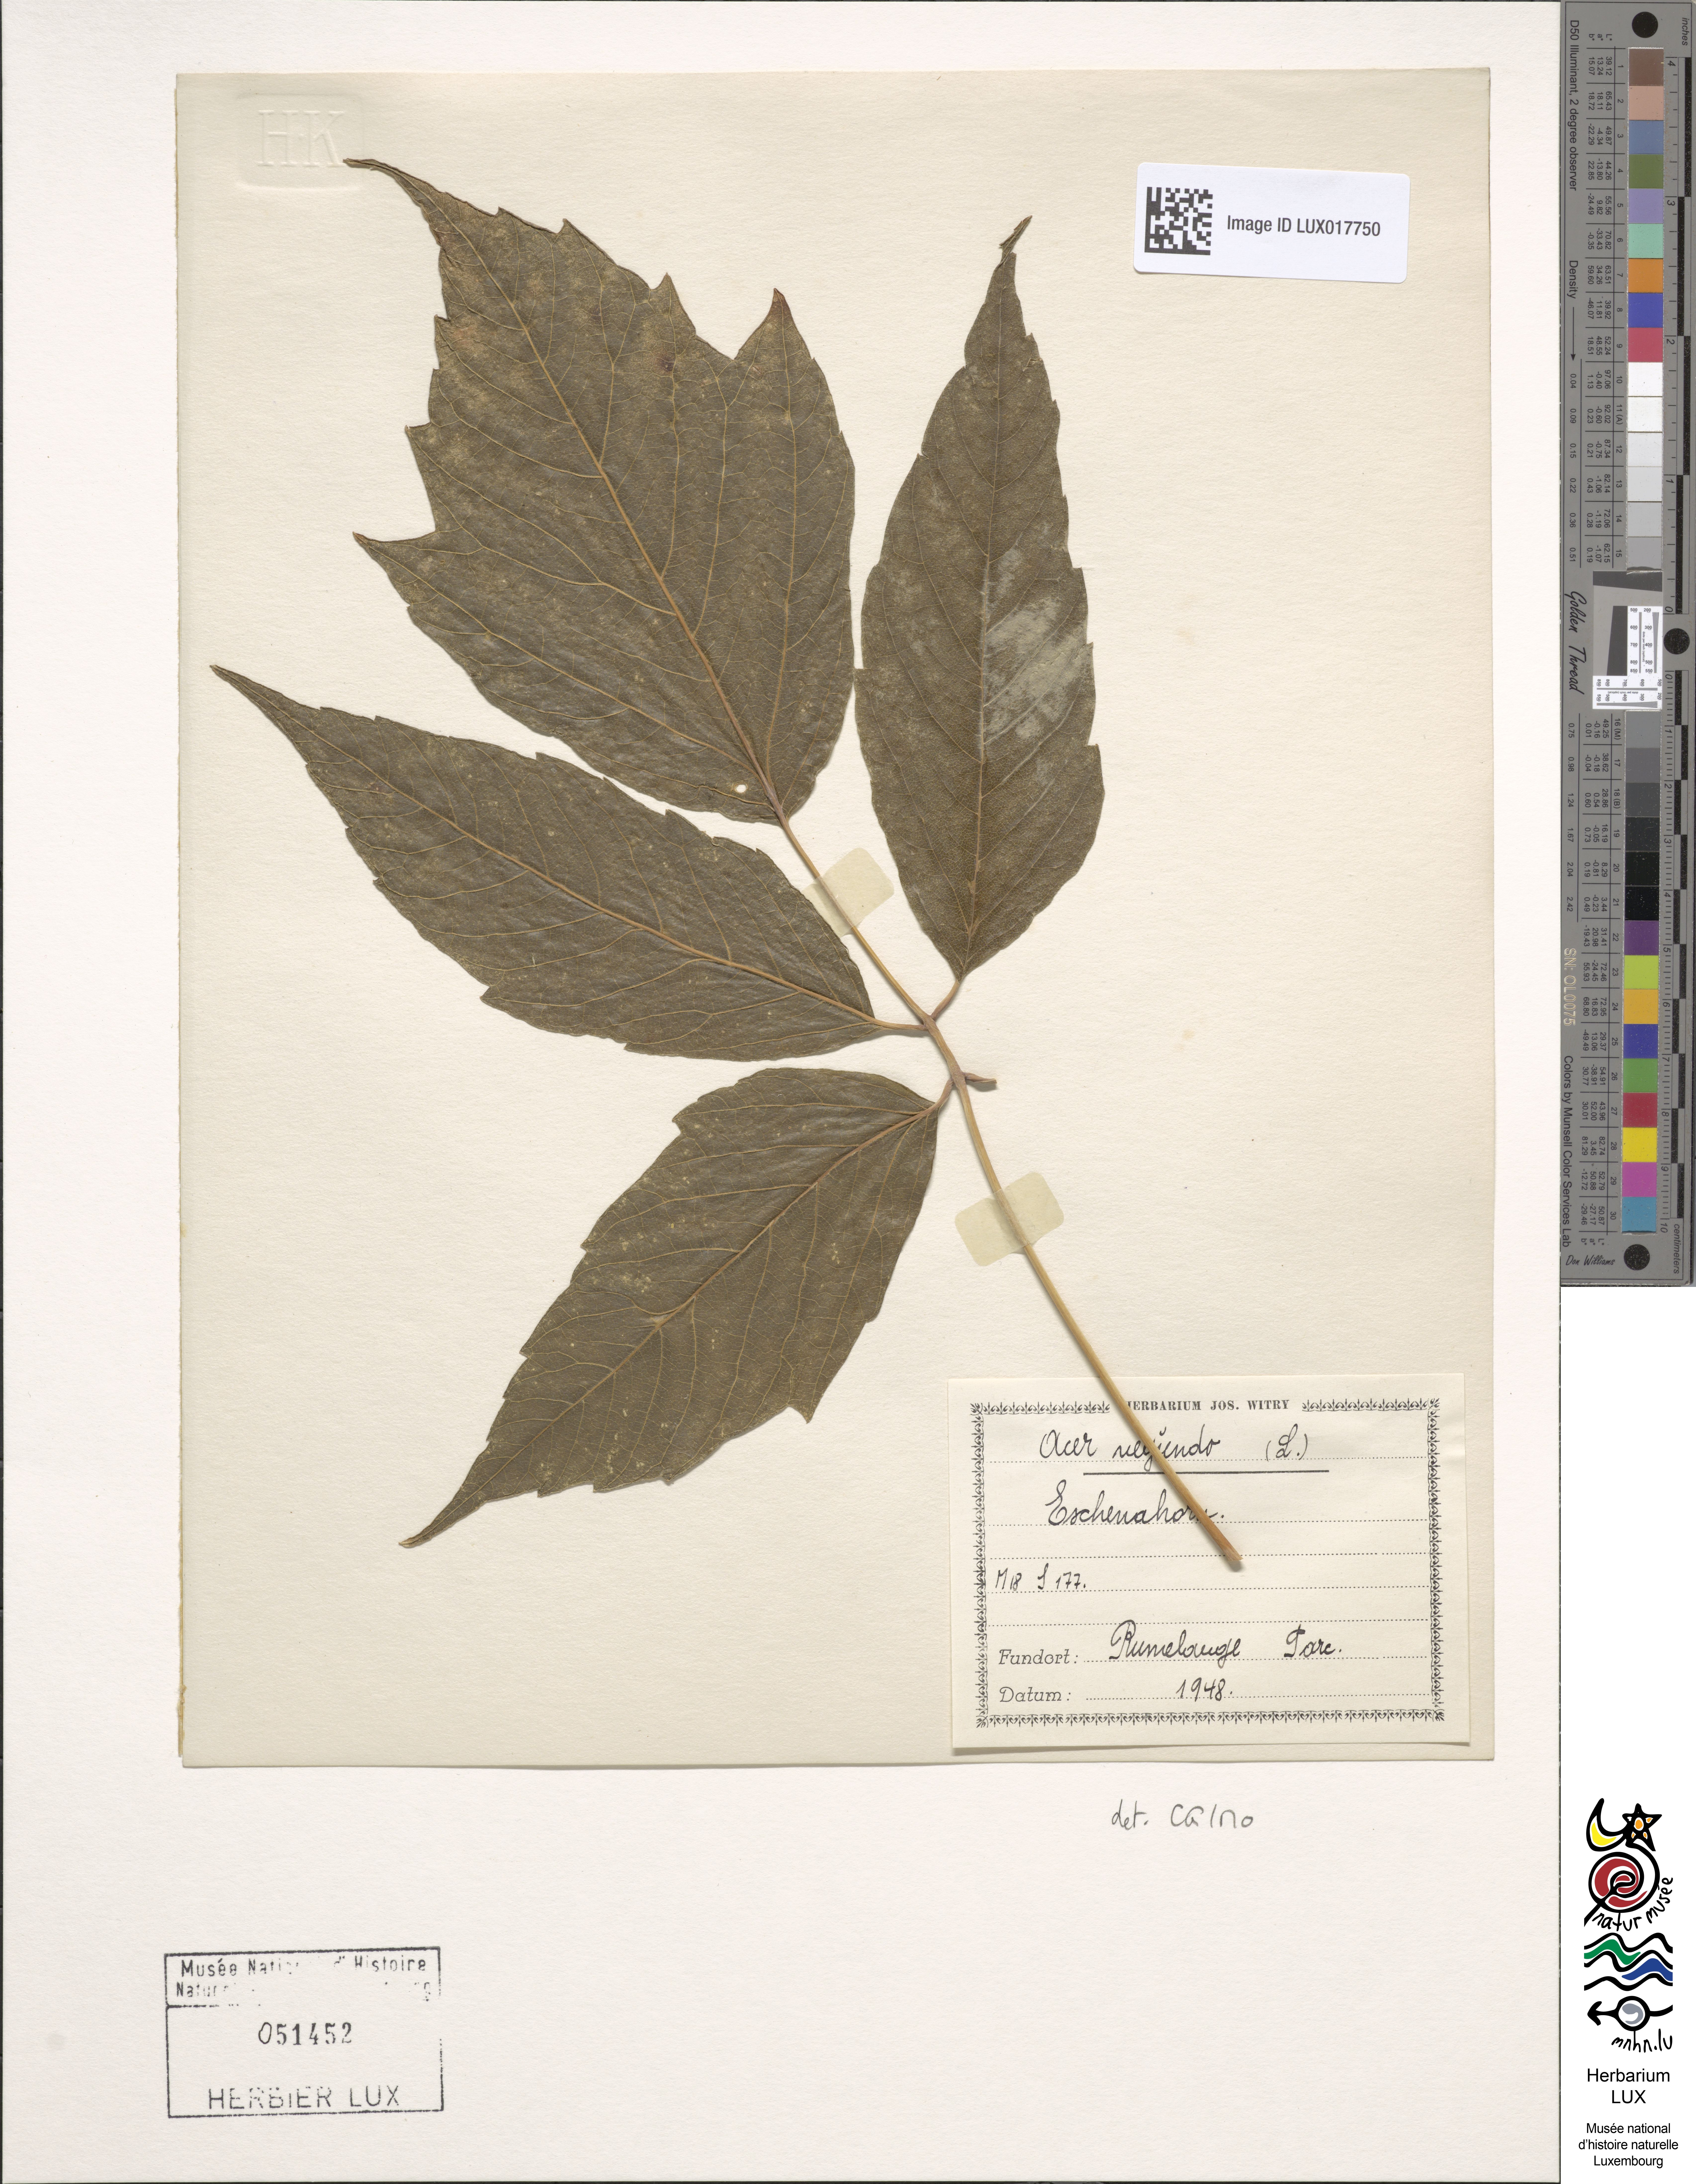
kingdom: Plantae
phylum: Tracheophyta
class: Magnoliopsida
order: Sapindales
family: Sapindaceae
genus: Acer
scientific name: Acer negundo
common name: Ashleaf maple
